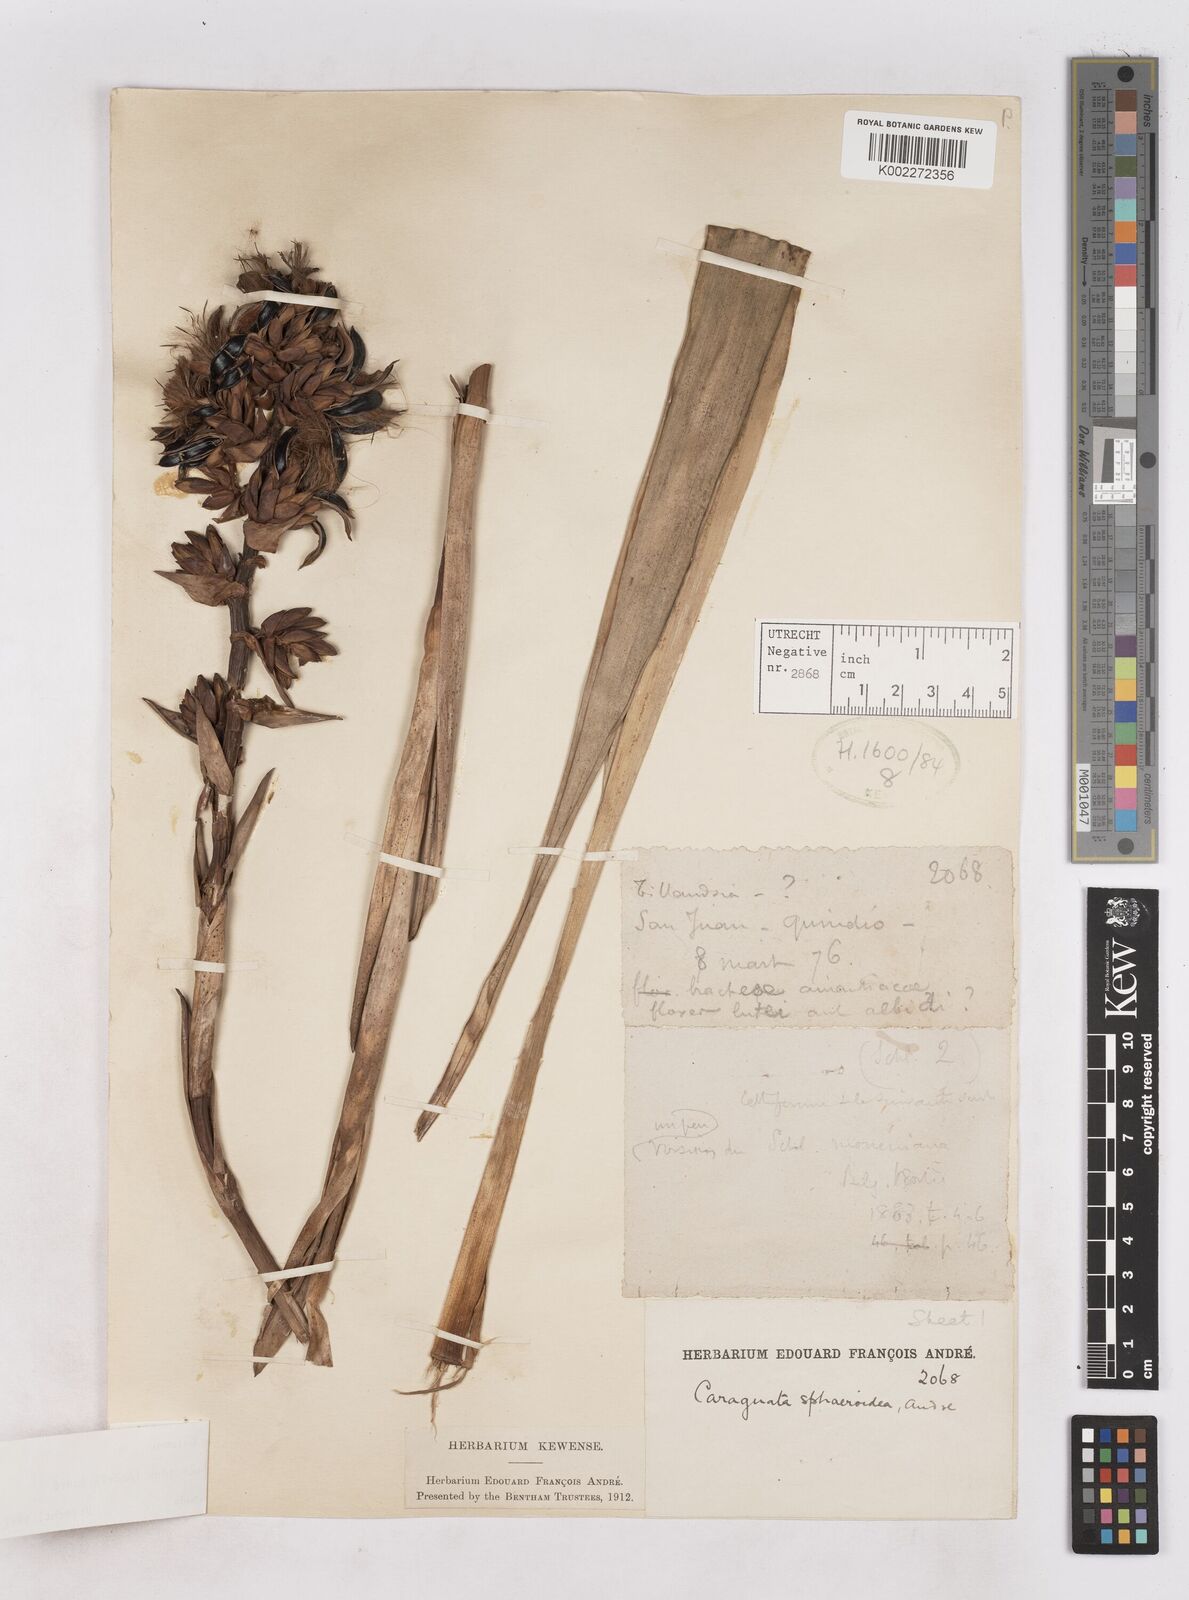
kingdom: Plantae
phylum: Tracheophyta
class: Liliopsida
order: Poales
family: Bromeliaceae
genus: Guzmania
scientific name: Guzmania sphaeroidea
